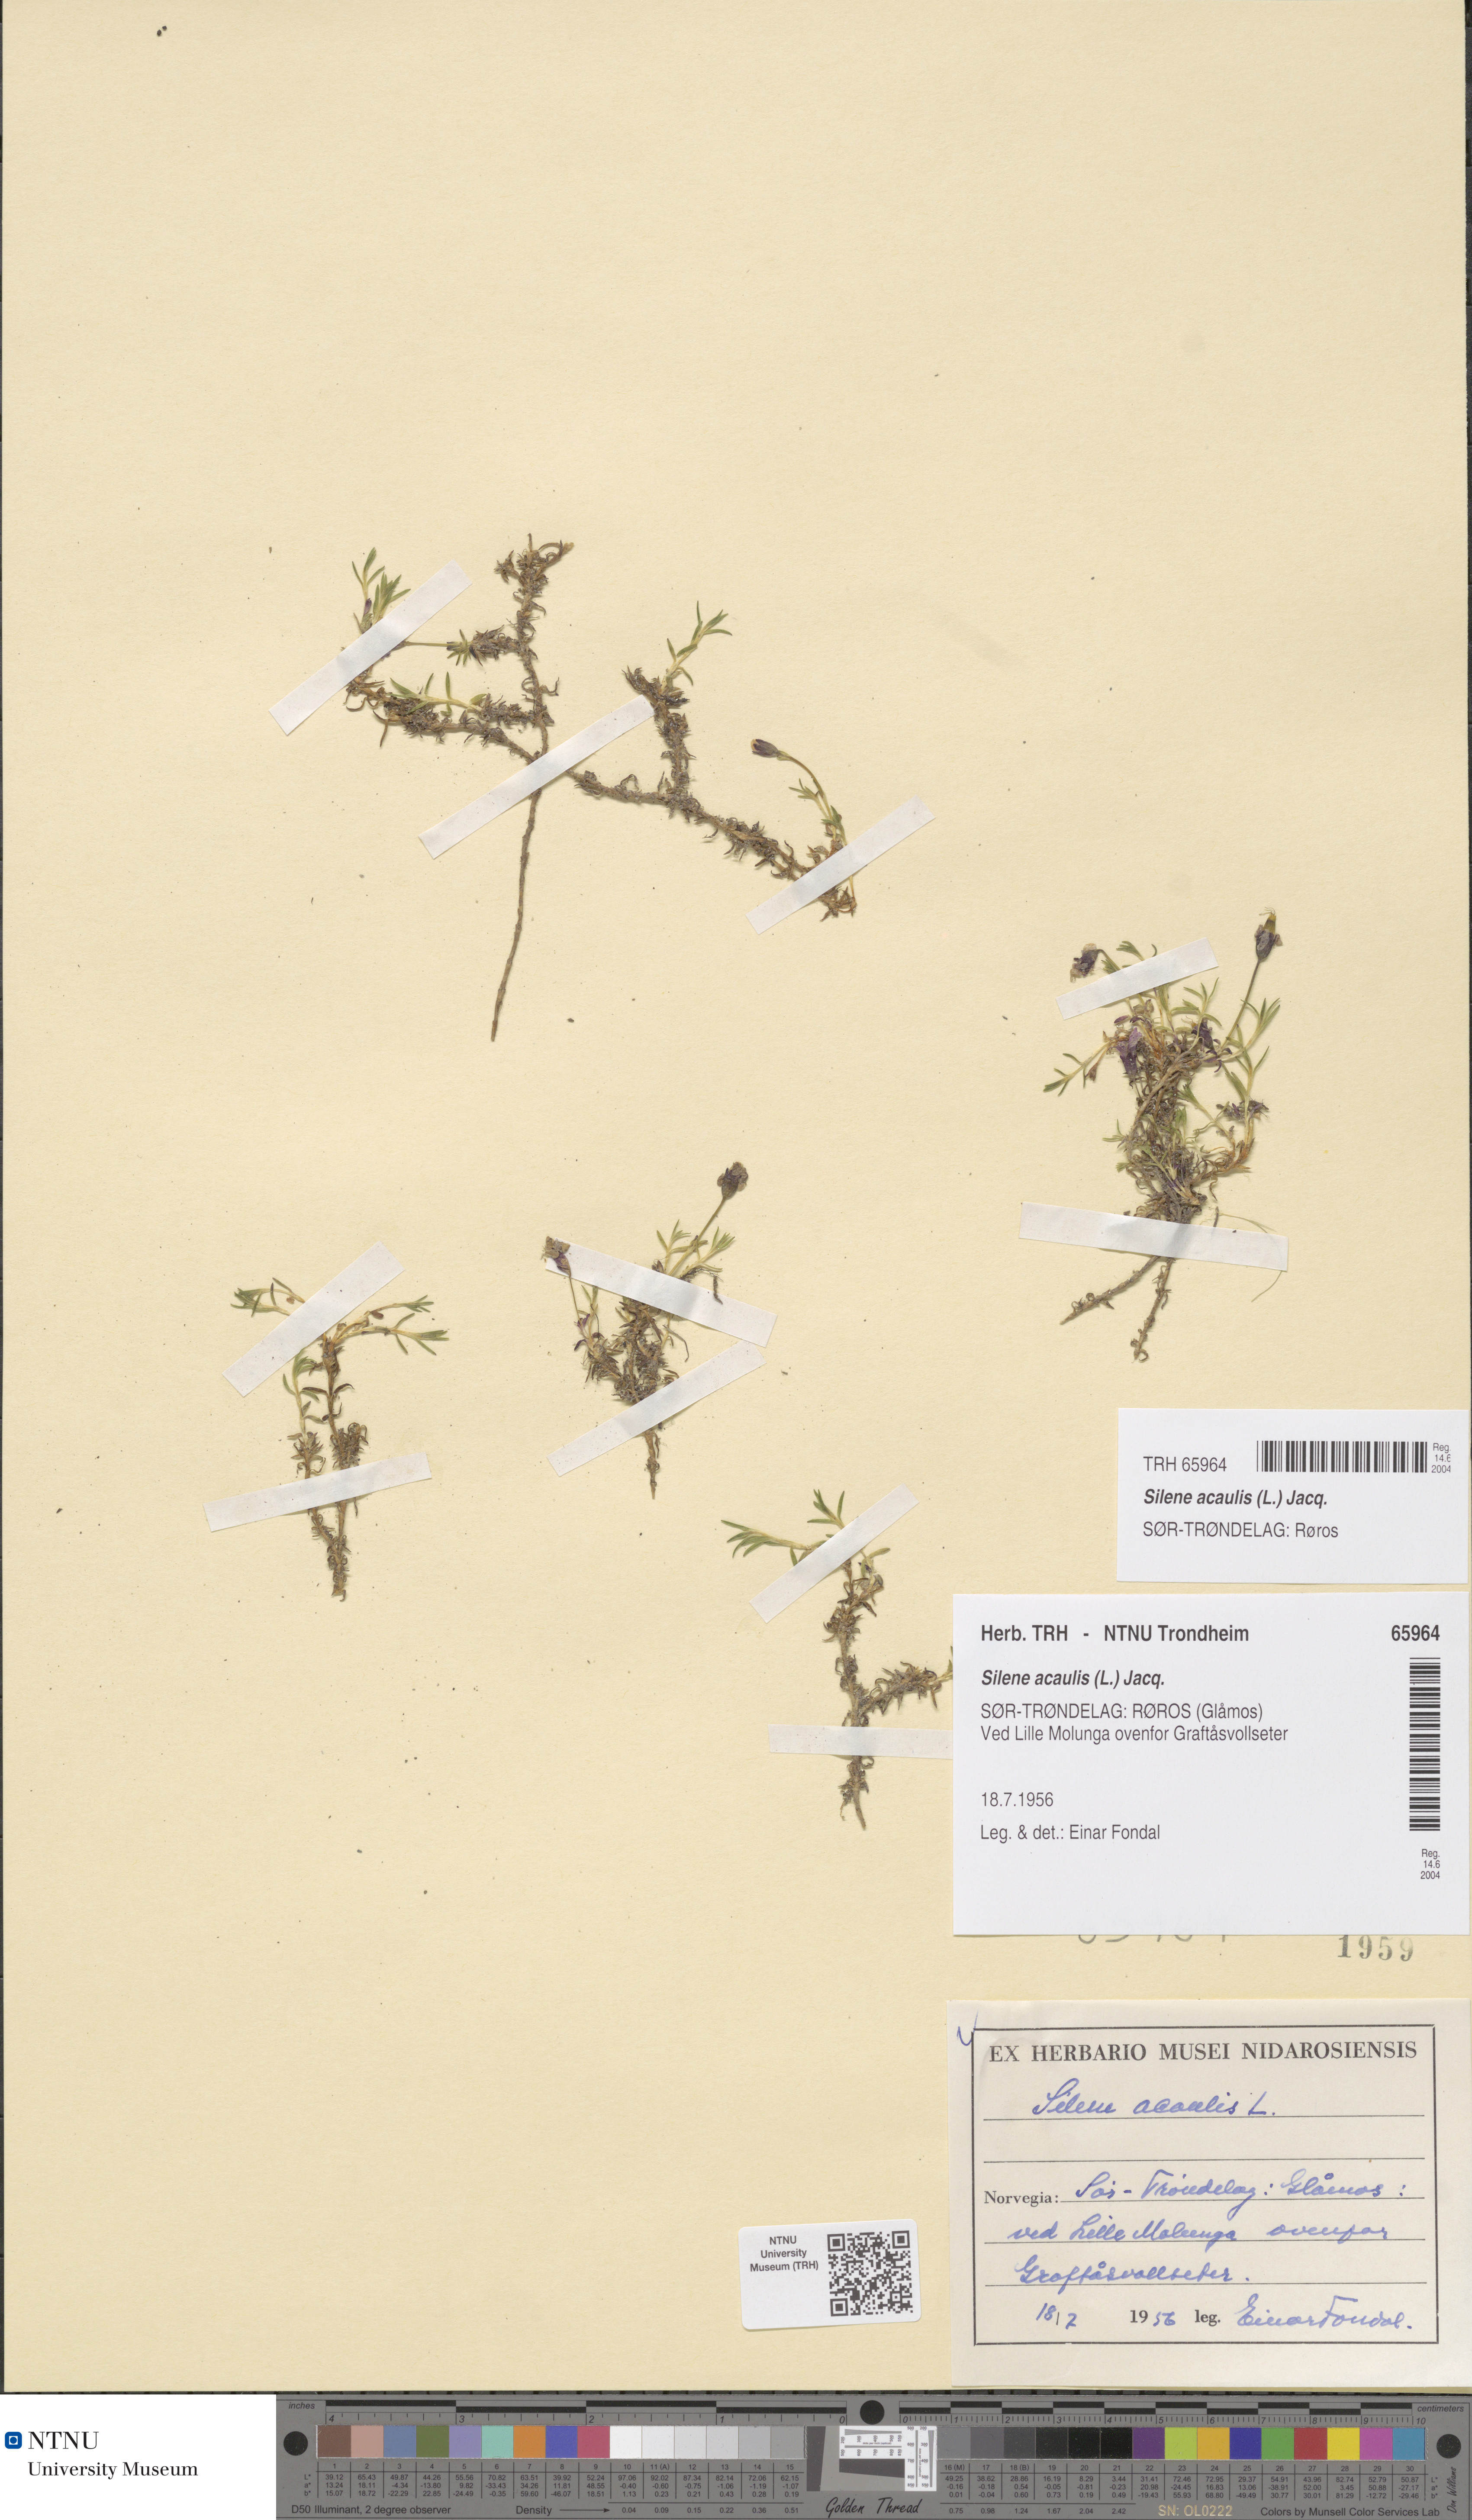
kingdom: Plantae
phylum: Tracheophyta
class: Magnoliopsida
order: Caryophyllales
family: Caryophyllaceae
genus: Silene
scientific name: Silene acaulis
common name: Moss campion
